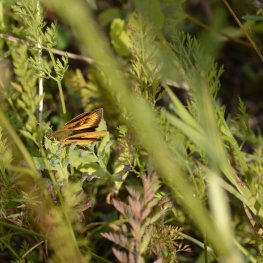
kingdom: Animalia
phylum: Arthropoda
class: Insecta
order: Lepidoptera
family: Hesperiidae
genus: Atrytone
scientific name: Atrytone delaware
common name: Delaware Skipper
